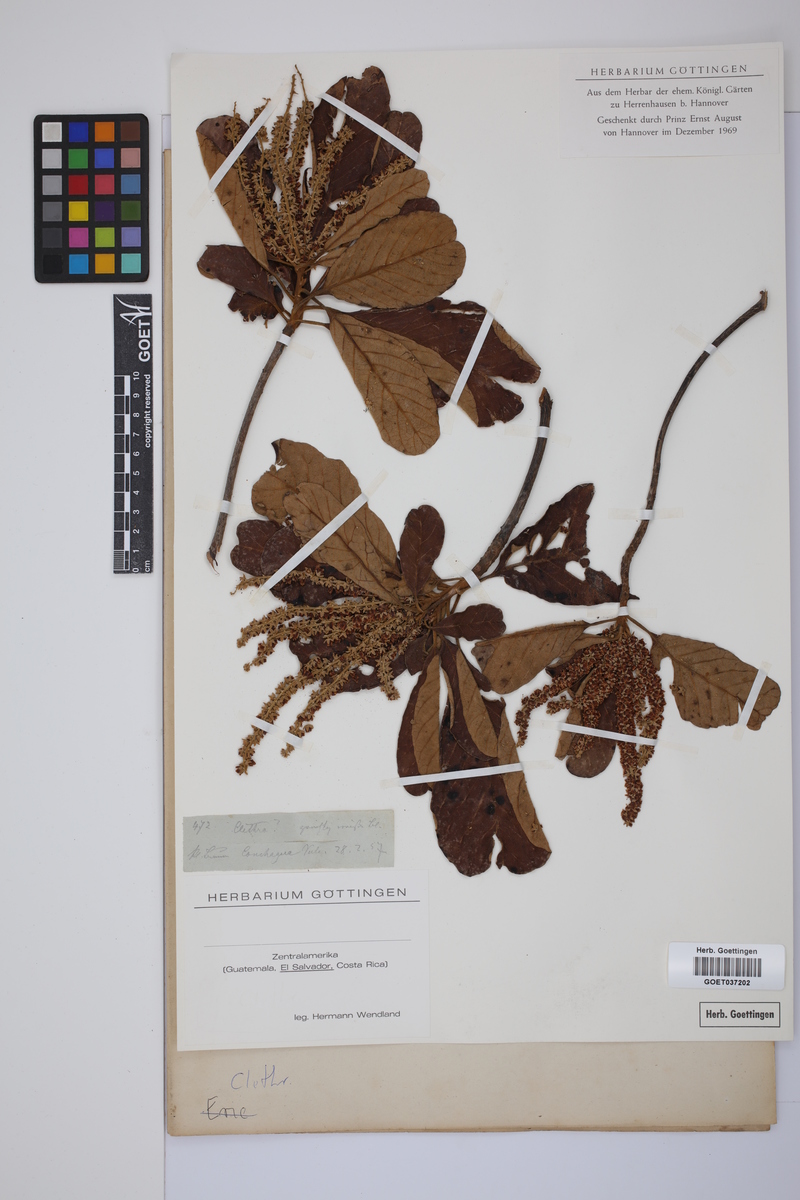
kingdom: Plantae
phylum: Tracheophyta
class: Magnoliopsida
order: Ericales
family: Clethraceae
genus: Clethra
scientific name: Clethra
